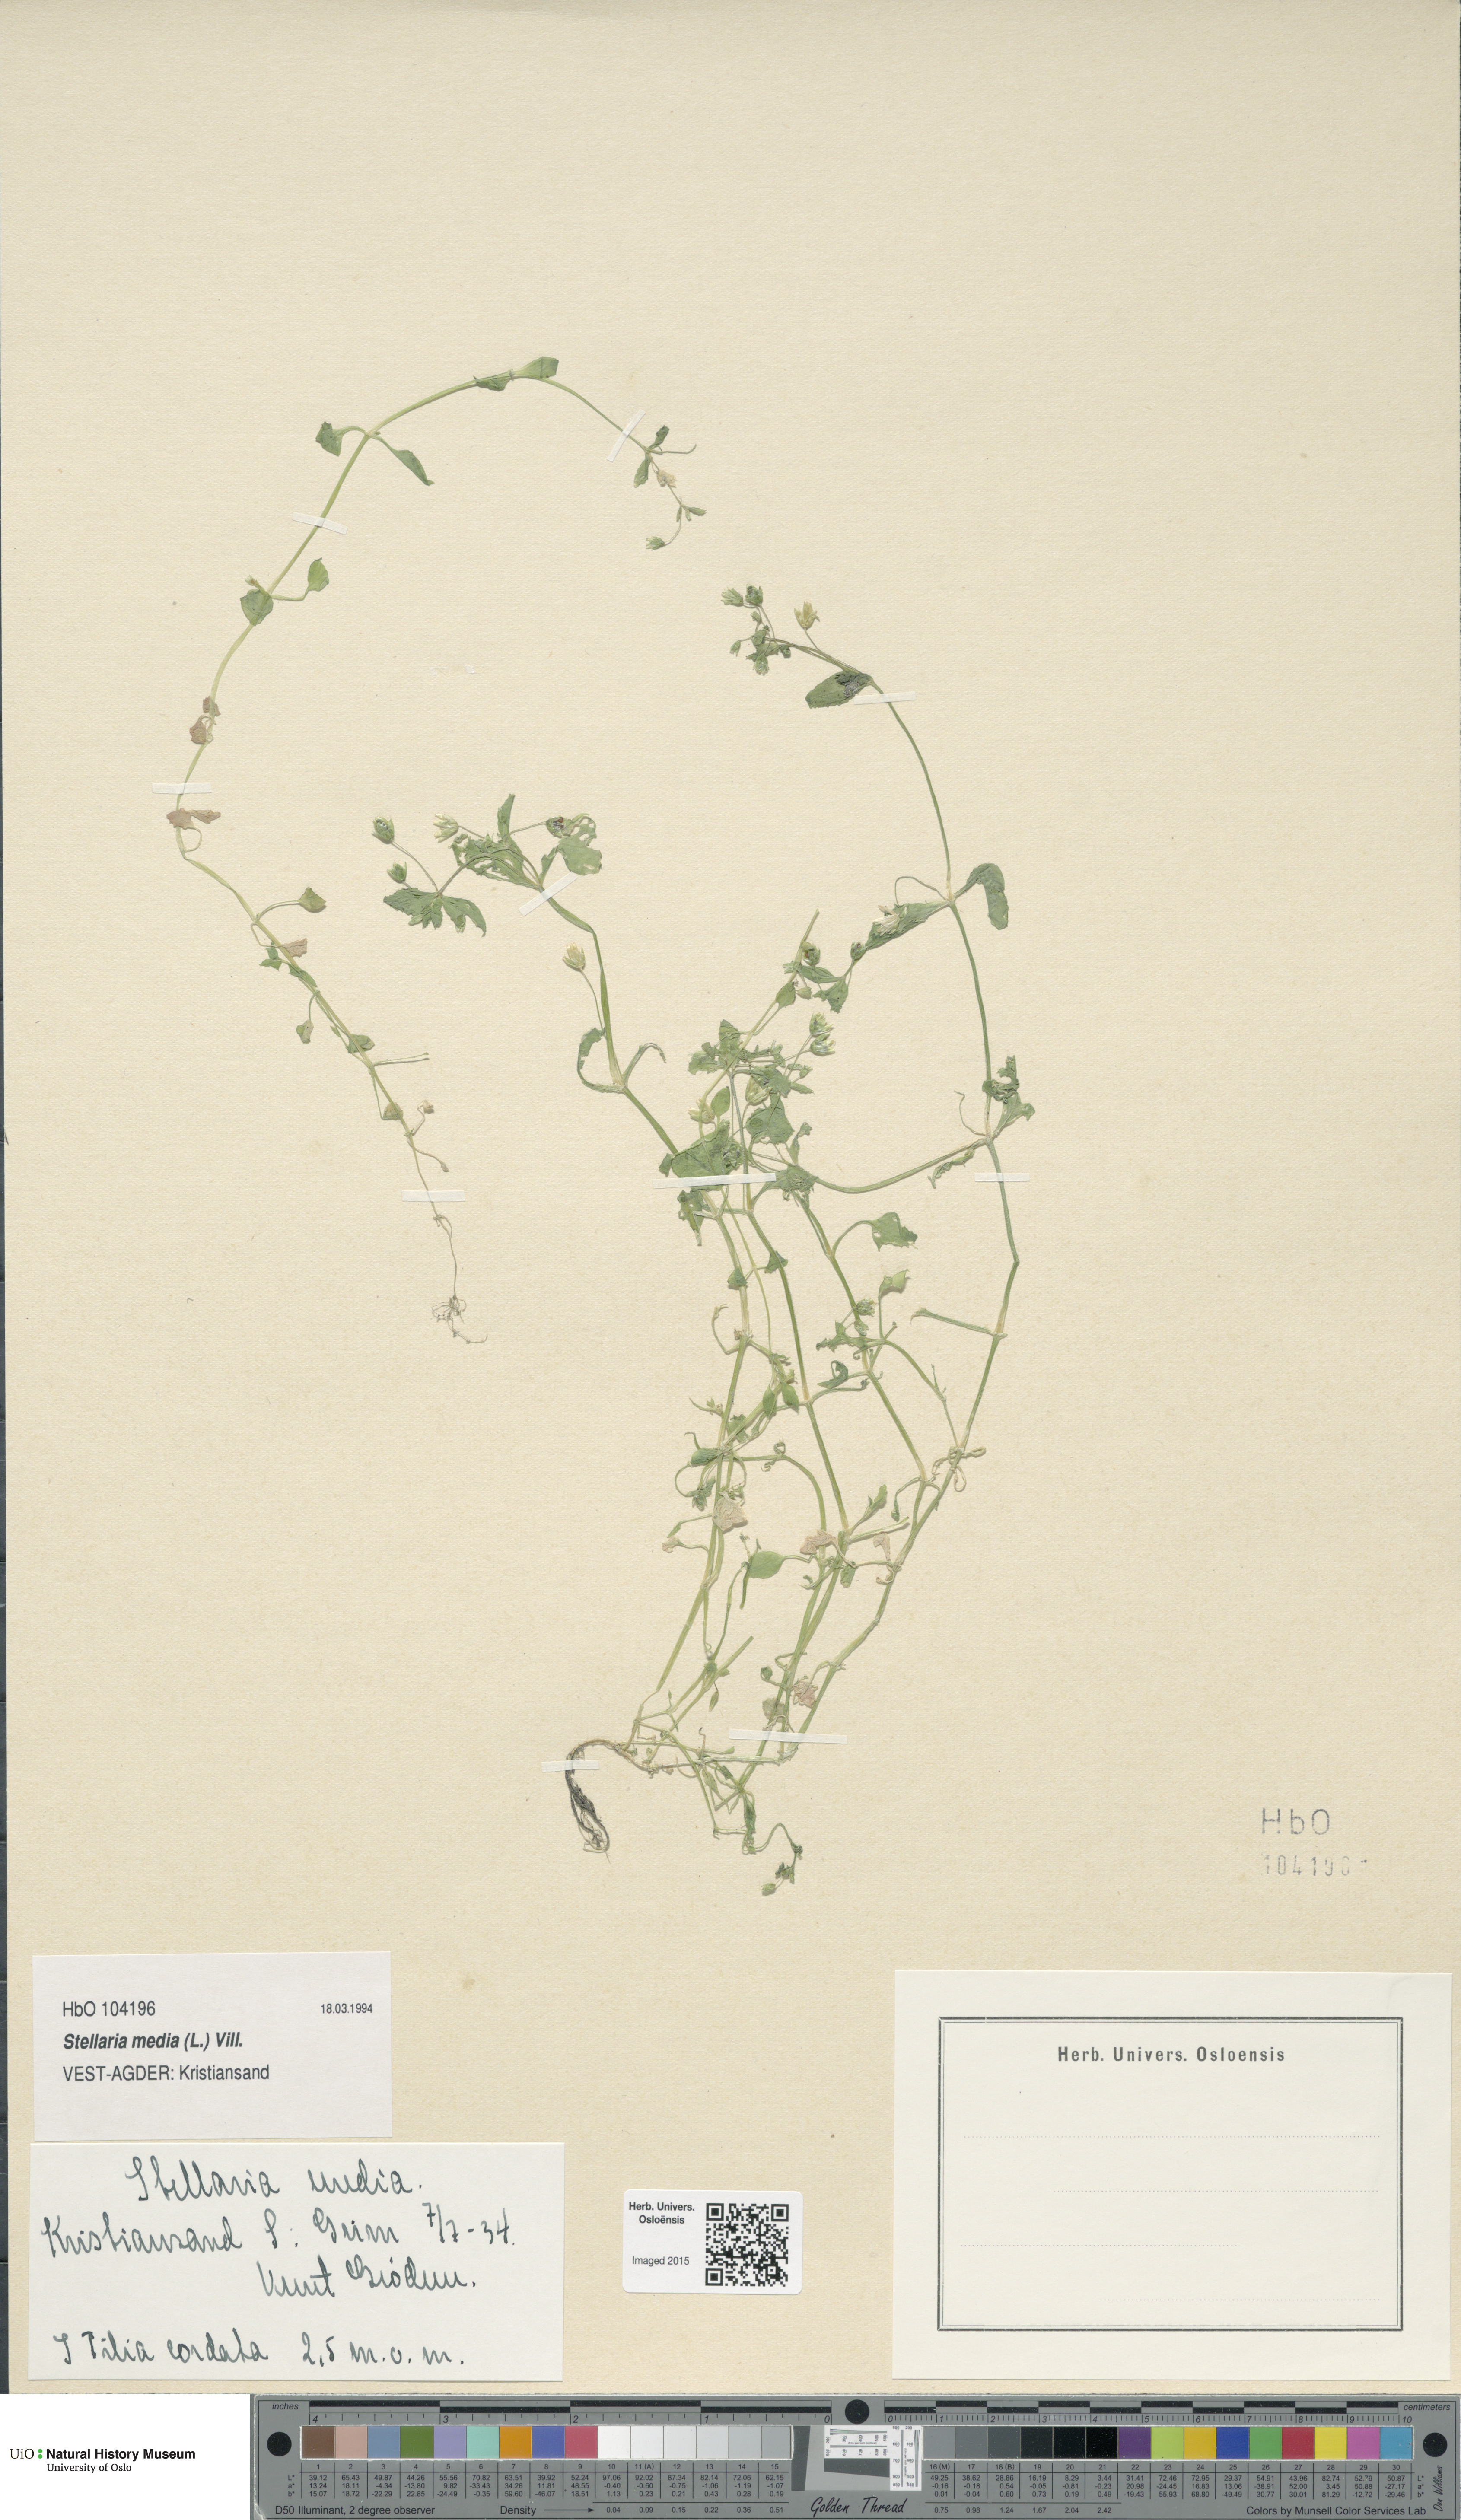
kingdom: Plantae
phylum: Tracheophyta
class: Magnoliopsida
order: Caryophyllales
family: Caryophyllaceae
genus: Stellaria
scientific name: Stellaria media
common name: Common chickweed
